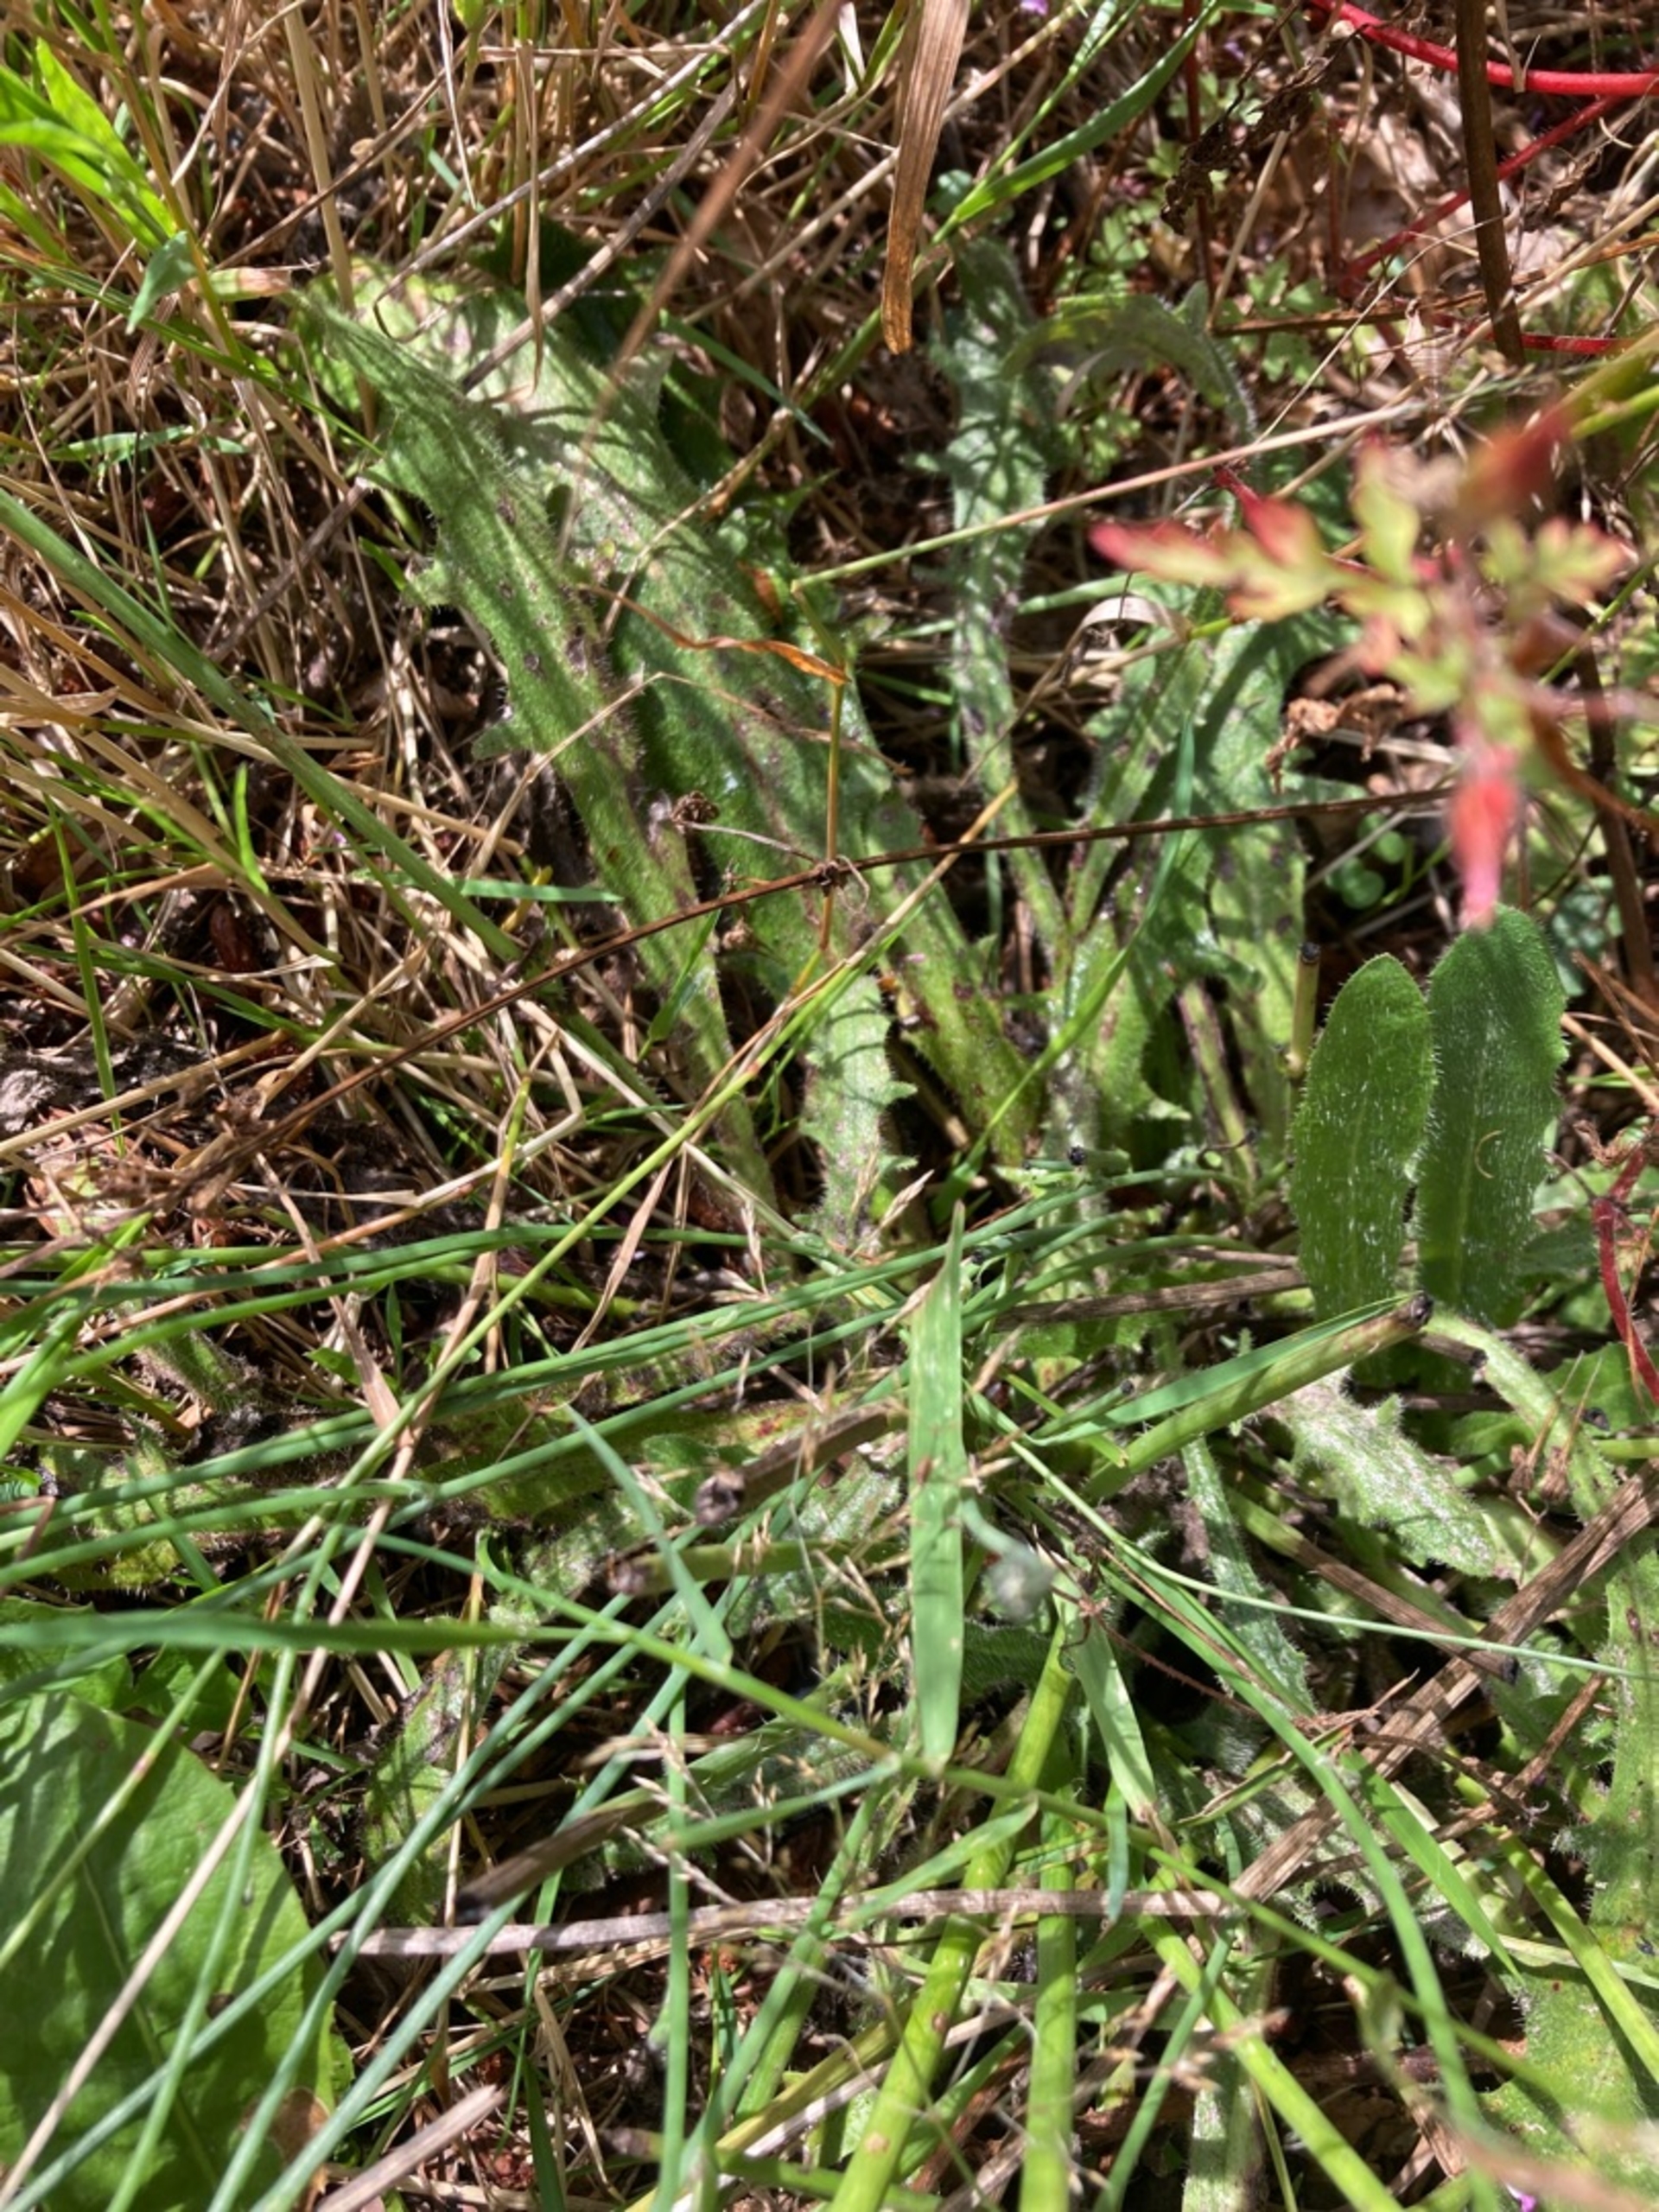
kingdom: Plantae
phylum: Tracheophyta
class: Magnoliopsida
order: Asterales
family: Asteraceae
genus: Hypochaeris
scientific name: Hypochaeris radicata
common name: Almindelig kongepen
